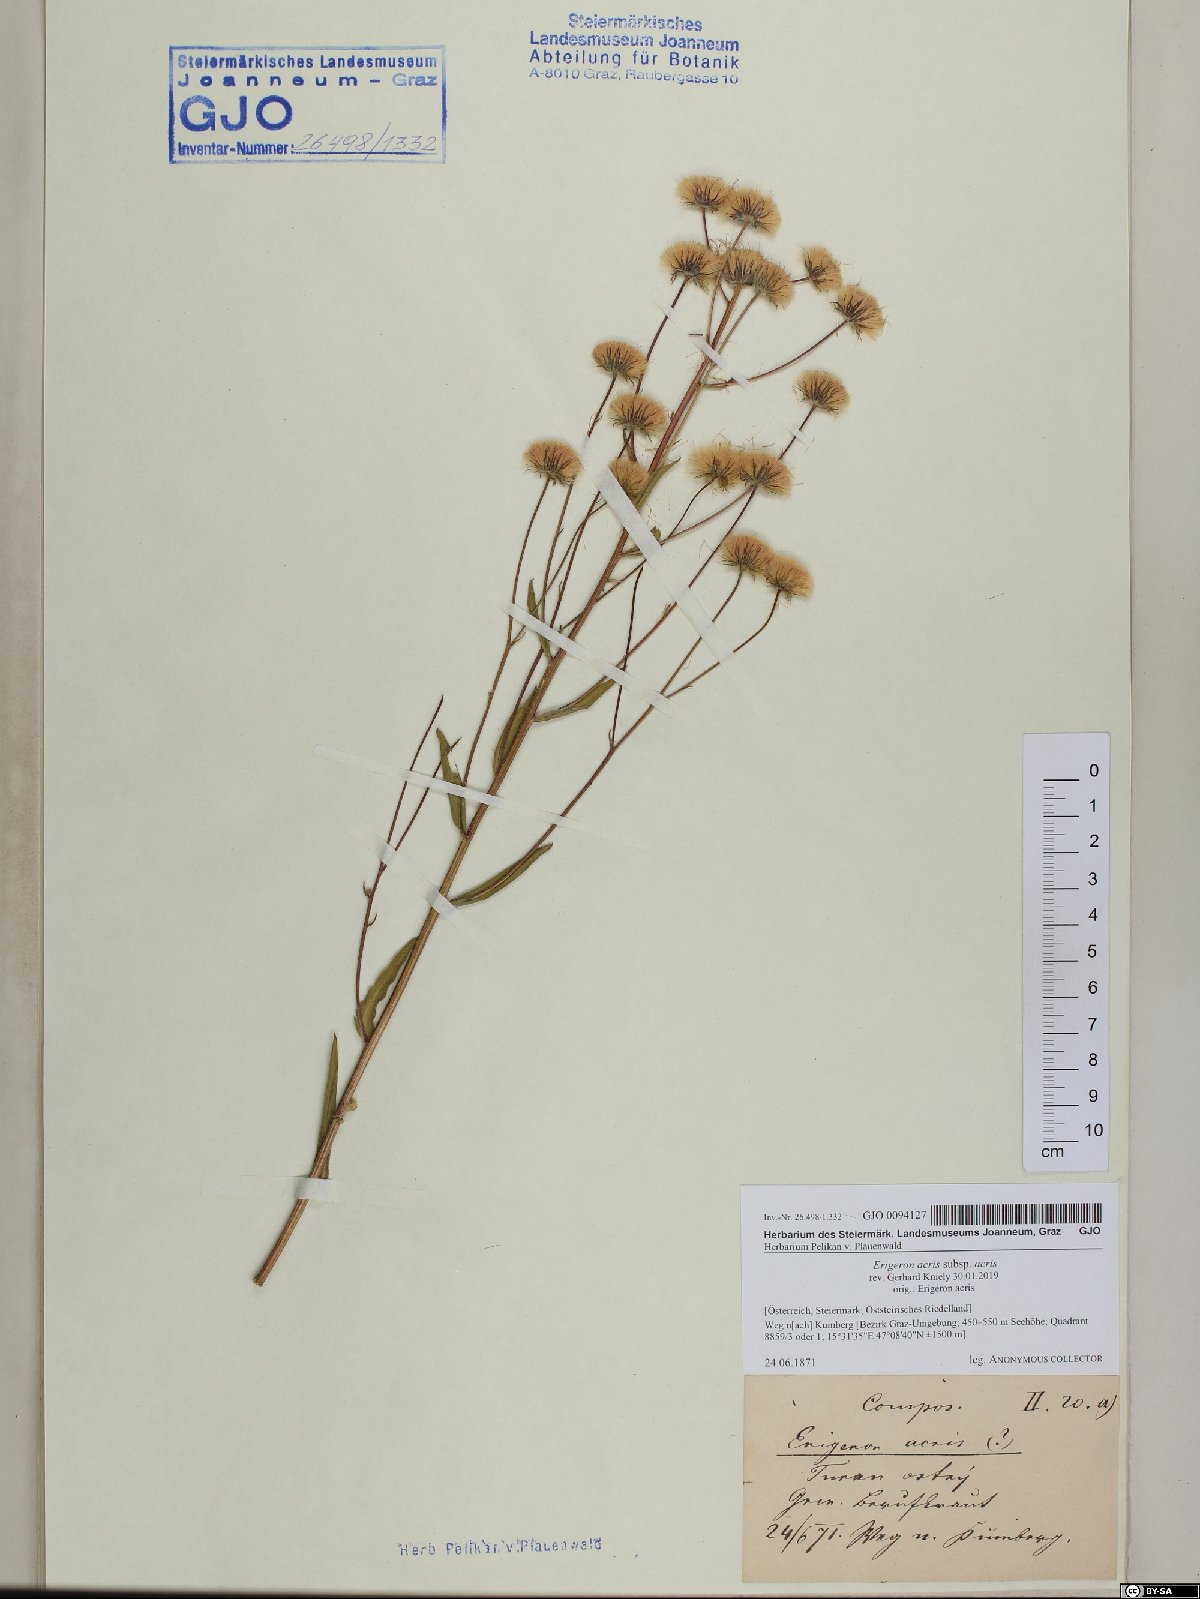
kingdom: Plantae
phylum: Tracheophyta
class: Magnoliopsida
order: Asterales
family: Asteraceae
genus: Erigeron
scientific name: Erigeron acris
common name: Blue fleabane
